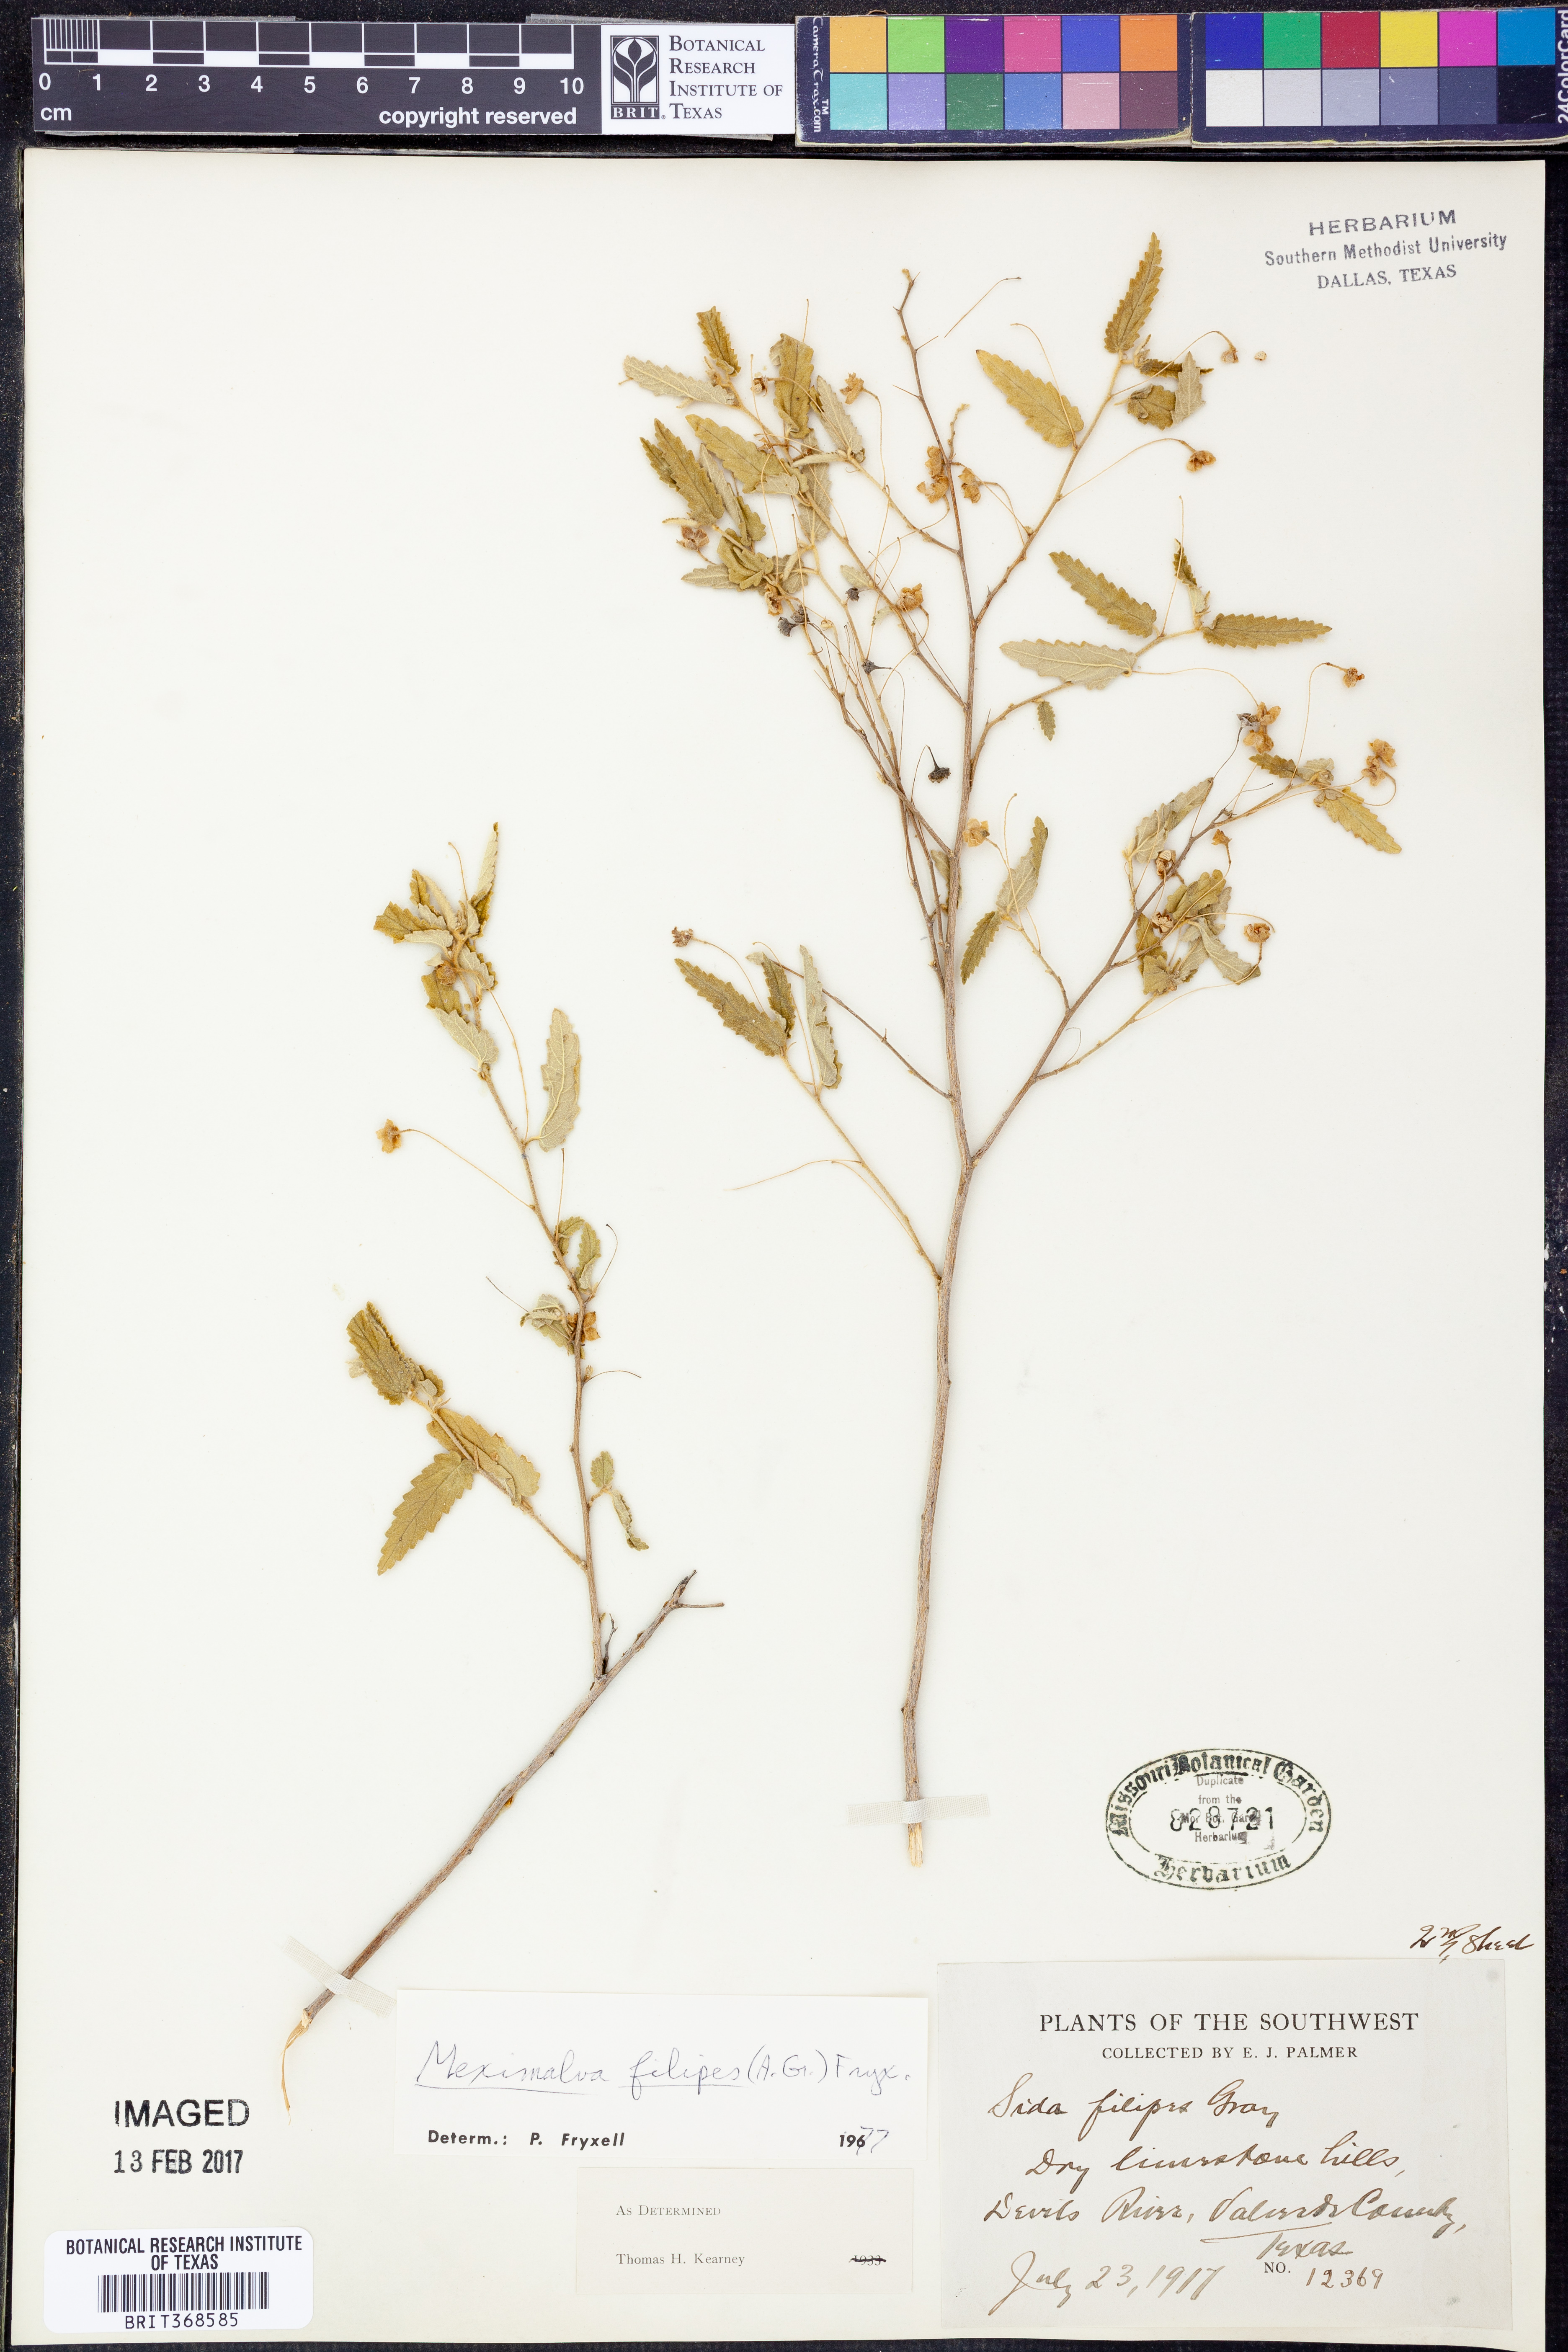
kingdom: Plantae
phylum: Tracheophyta
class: Magnoliopsida
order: Malvales
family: Malvaceae
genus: Meximalva
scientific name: Meximalva filipes
